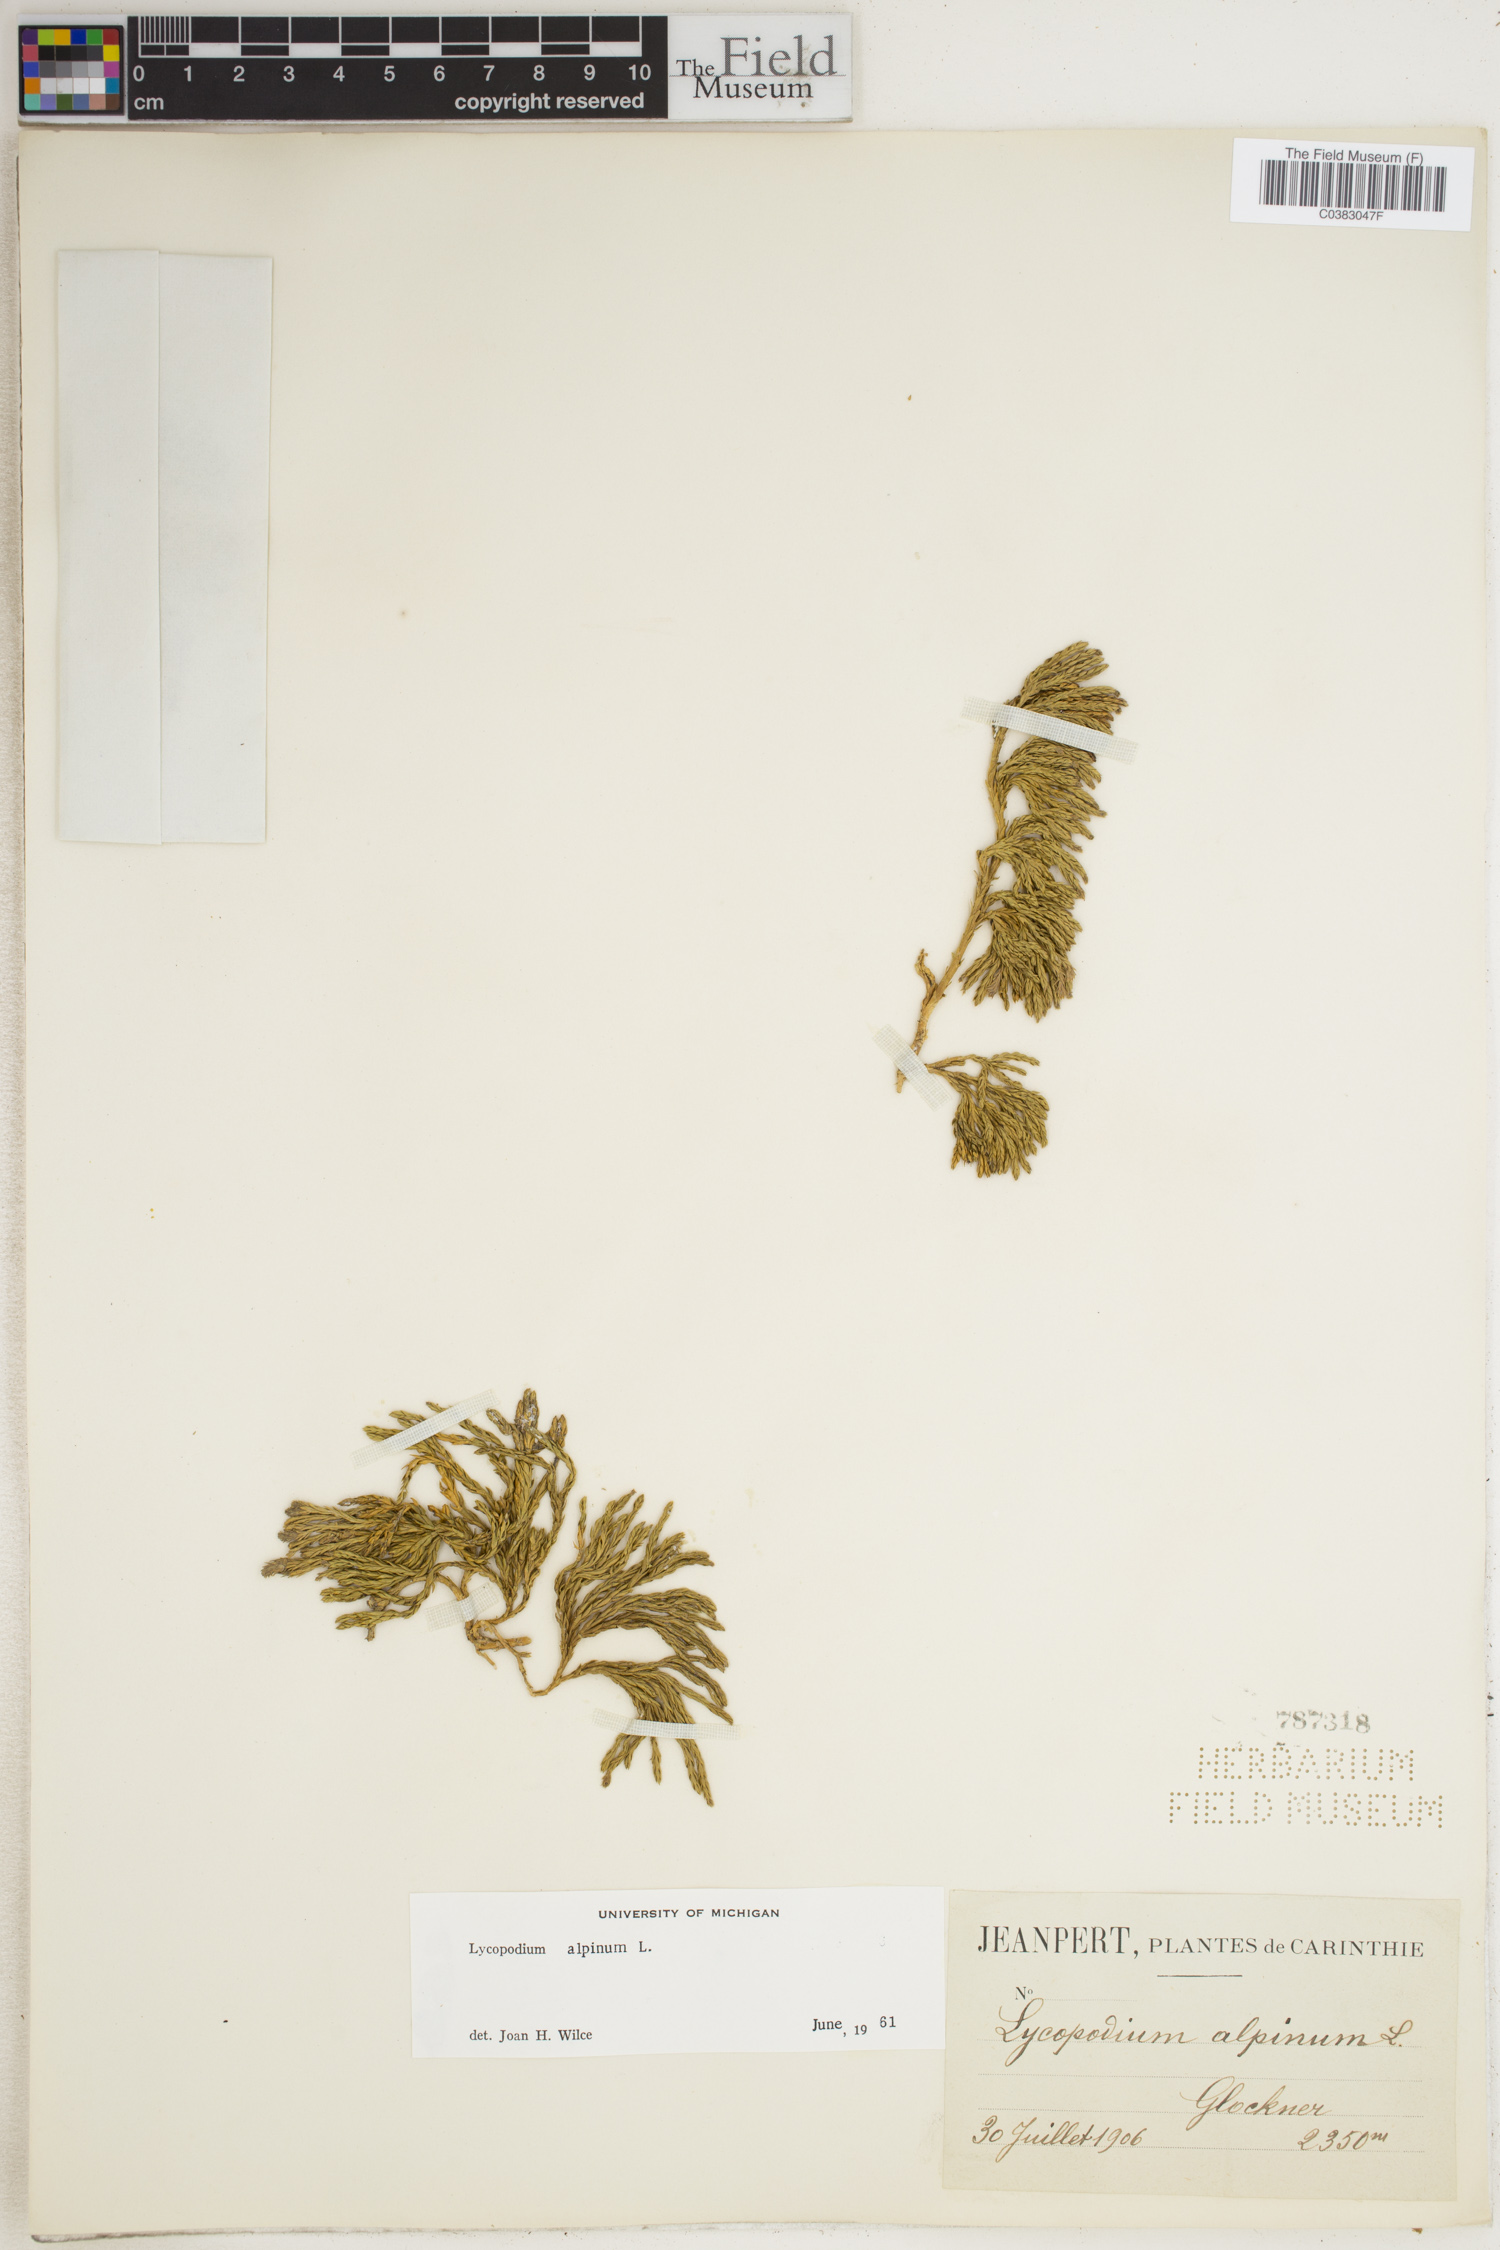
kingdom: Plantae
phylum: Tracheophyta
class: Lycopodiopsida
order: Lycopodiales
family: Lycopodiaceae
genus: Diphasiastrum
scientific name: Diphasiastrum alpinum
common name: Alpine clubmoss
